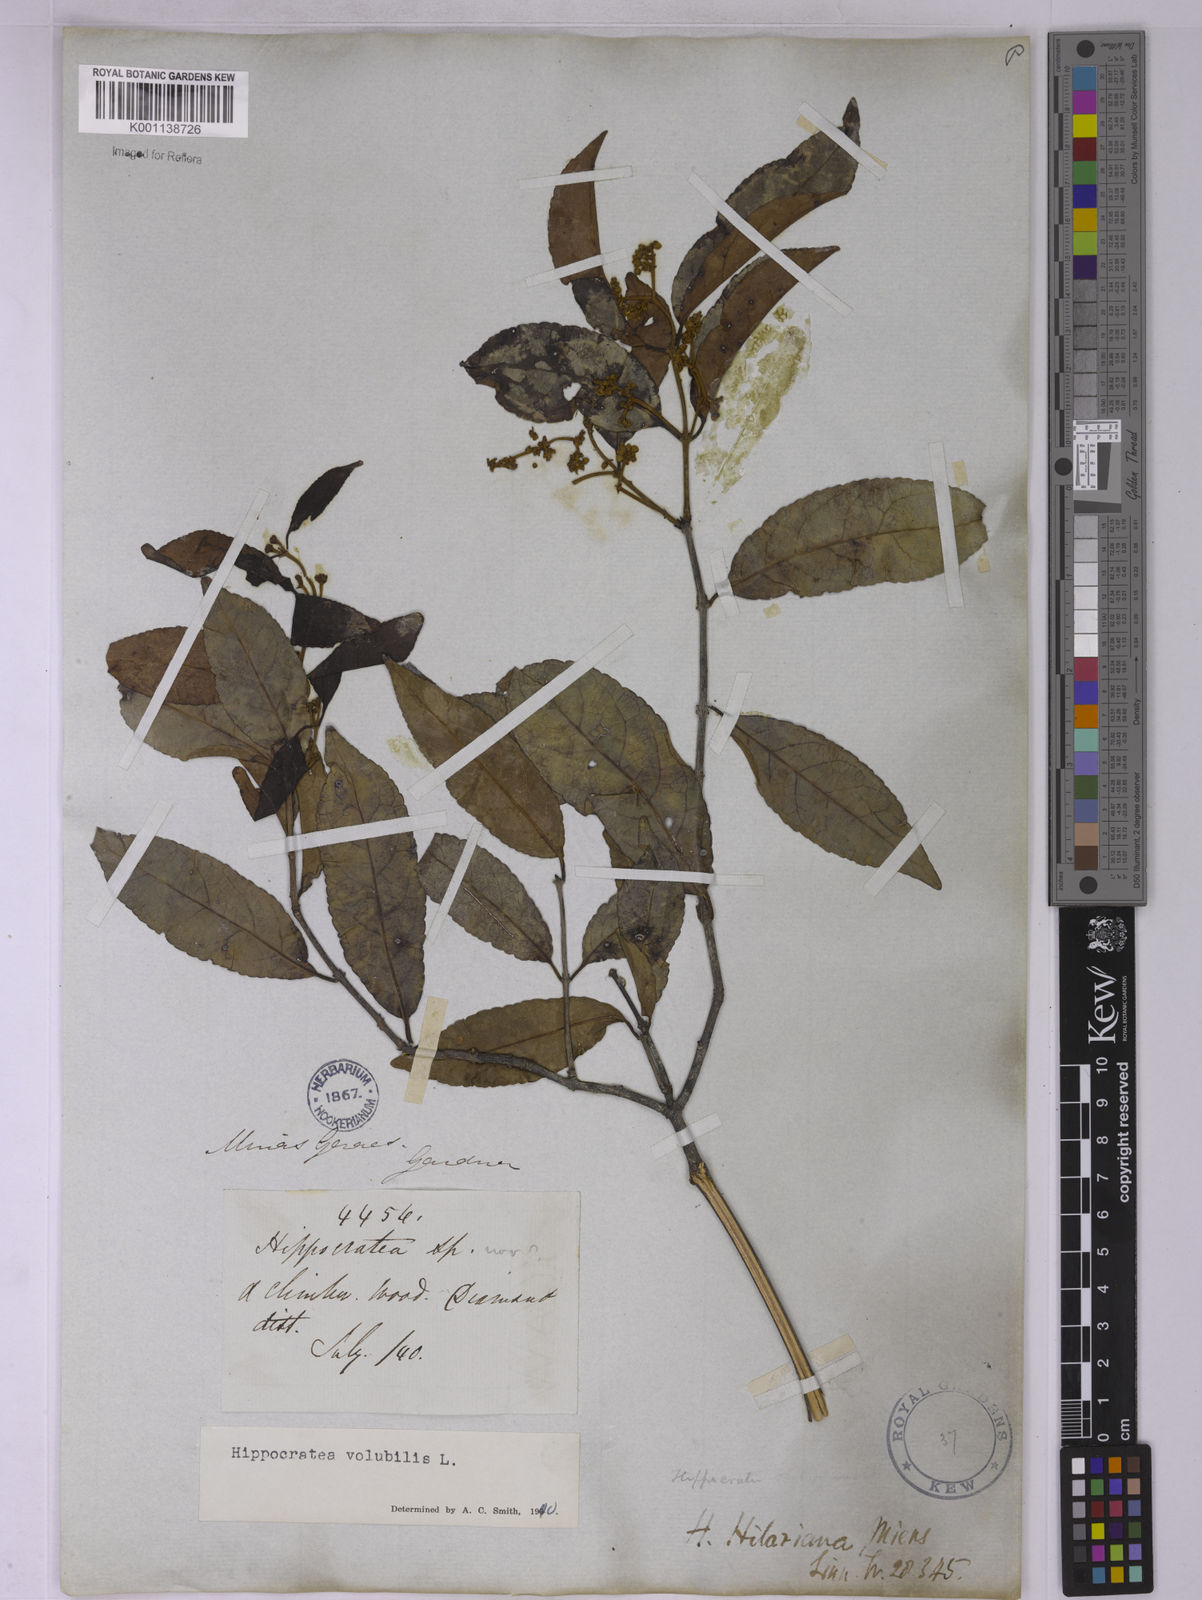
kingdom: Plantae
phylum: Tracheophyta
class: Magnoliopsida
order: Celastrales
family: Celastraceae
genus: Hippocratea
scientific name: Hippocratea volubilis
